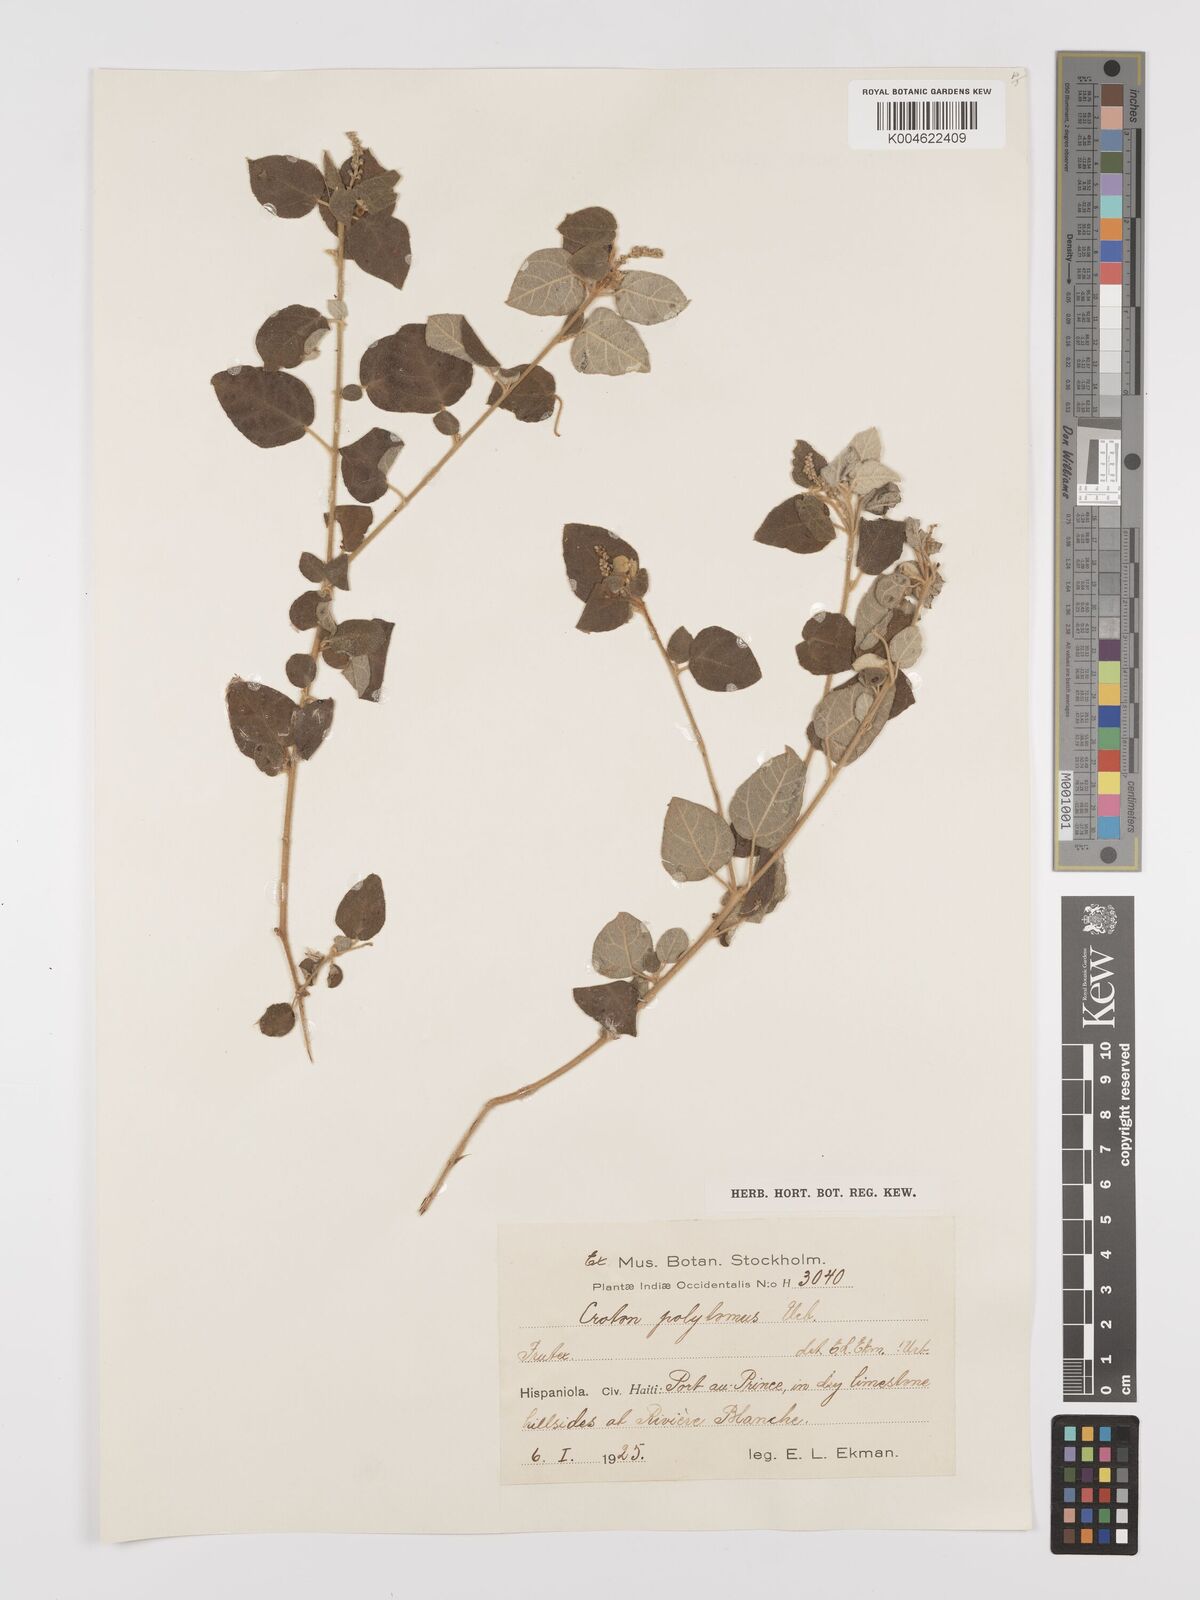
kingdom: Plantae
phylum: Tracheophyta
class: Magnoliopsida
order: Malpighiales
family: Euphorbiaceae
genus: Croton
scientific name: Croton polytomus
